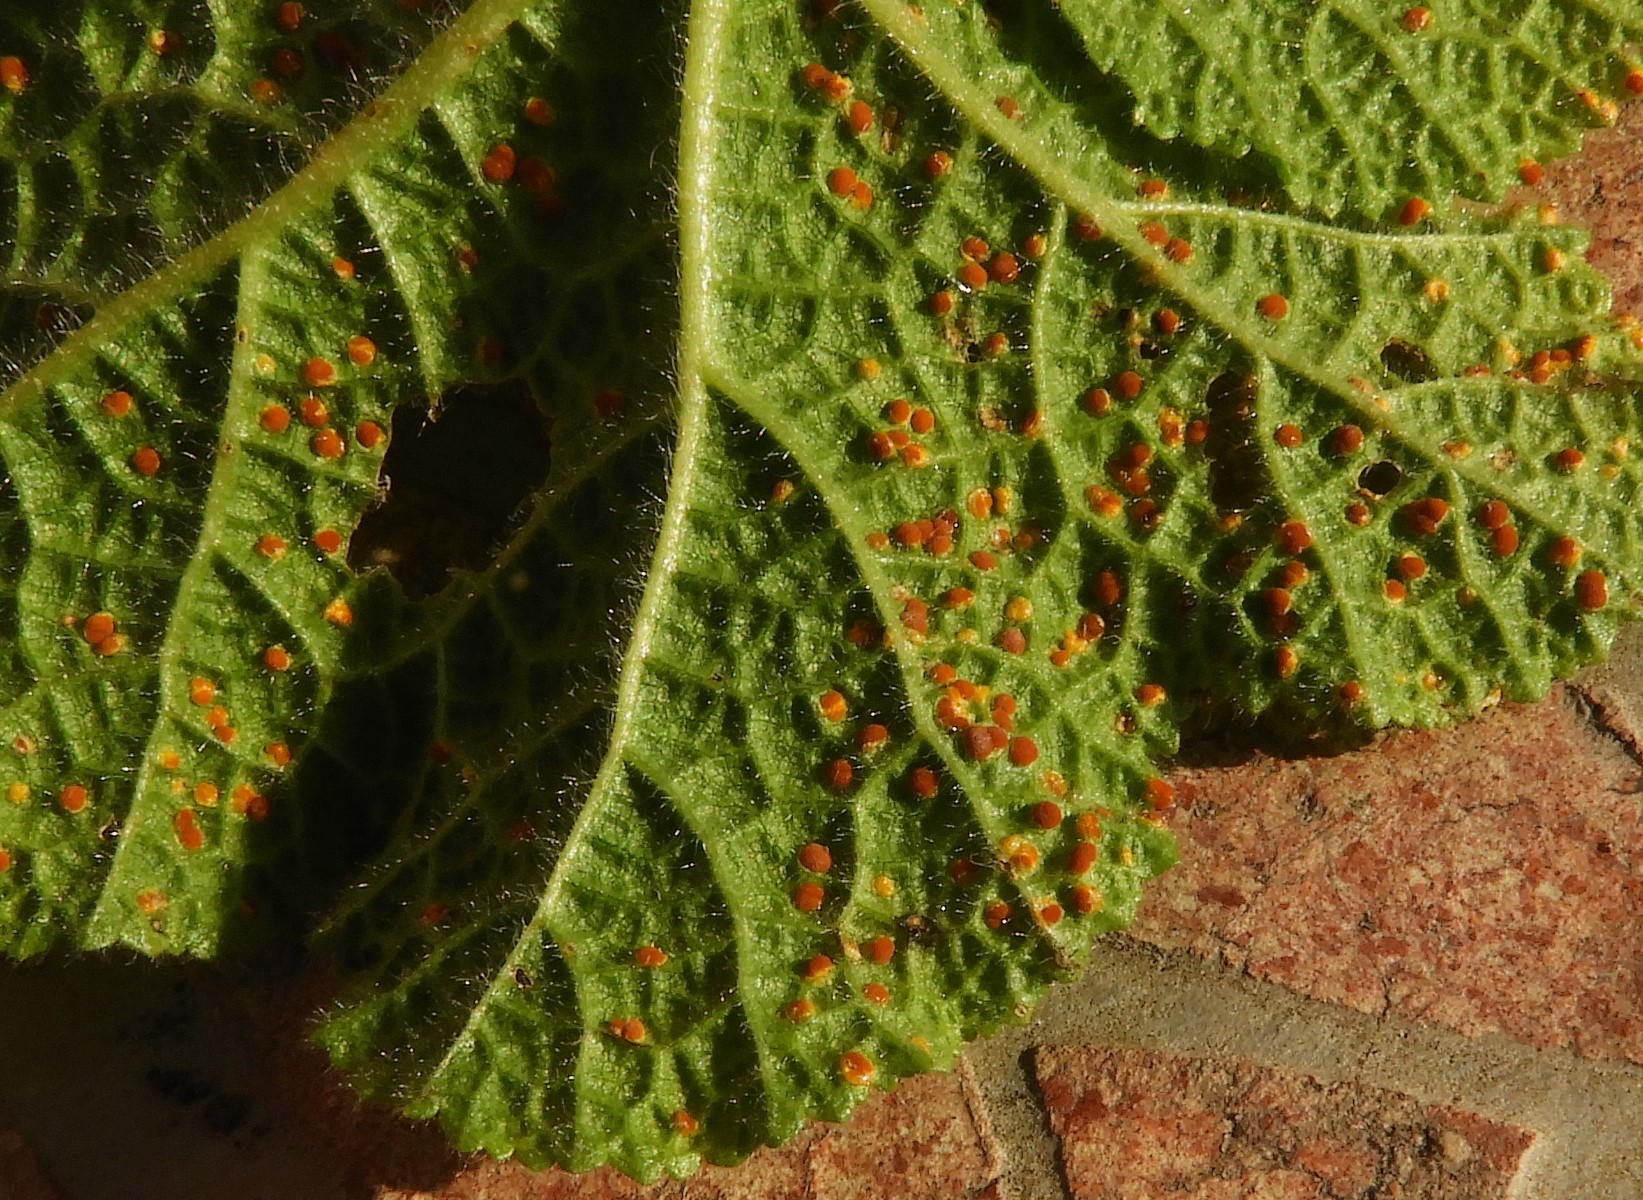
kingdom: Fungi
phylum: Basidiomycota
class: Pucciniomycetes
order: Pucciniales
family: Pucciniaceae
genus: Puccinia
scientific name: Puccinia malvacearum
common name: stokrose-tvecellerust
